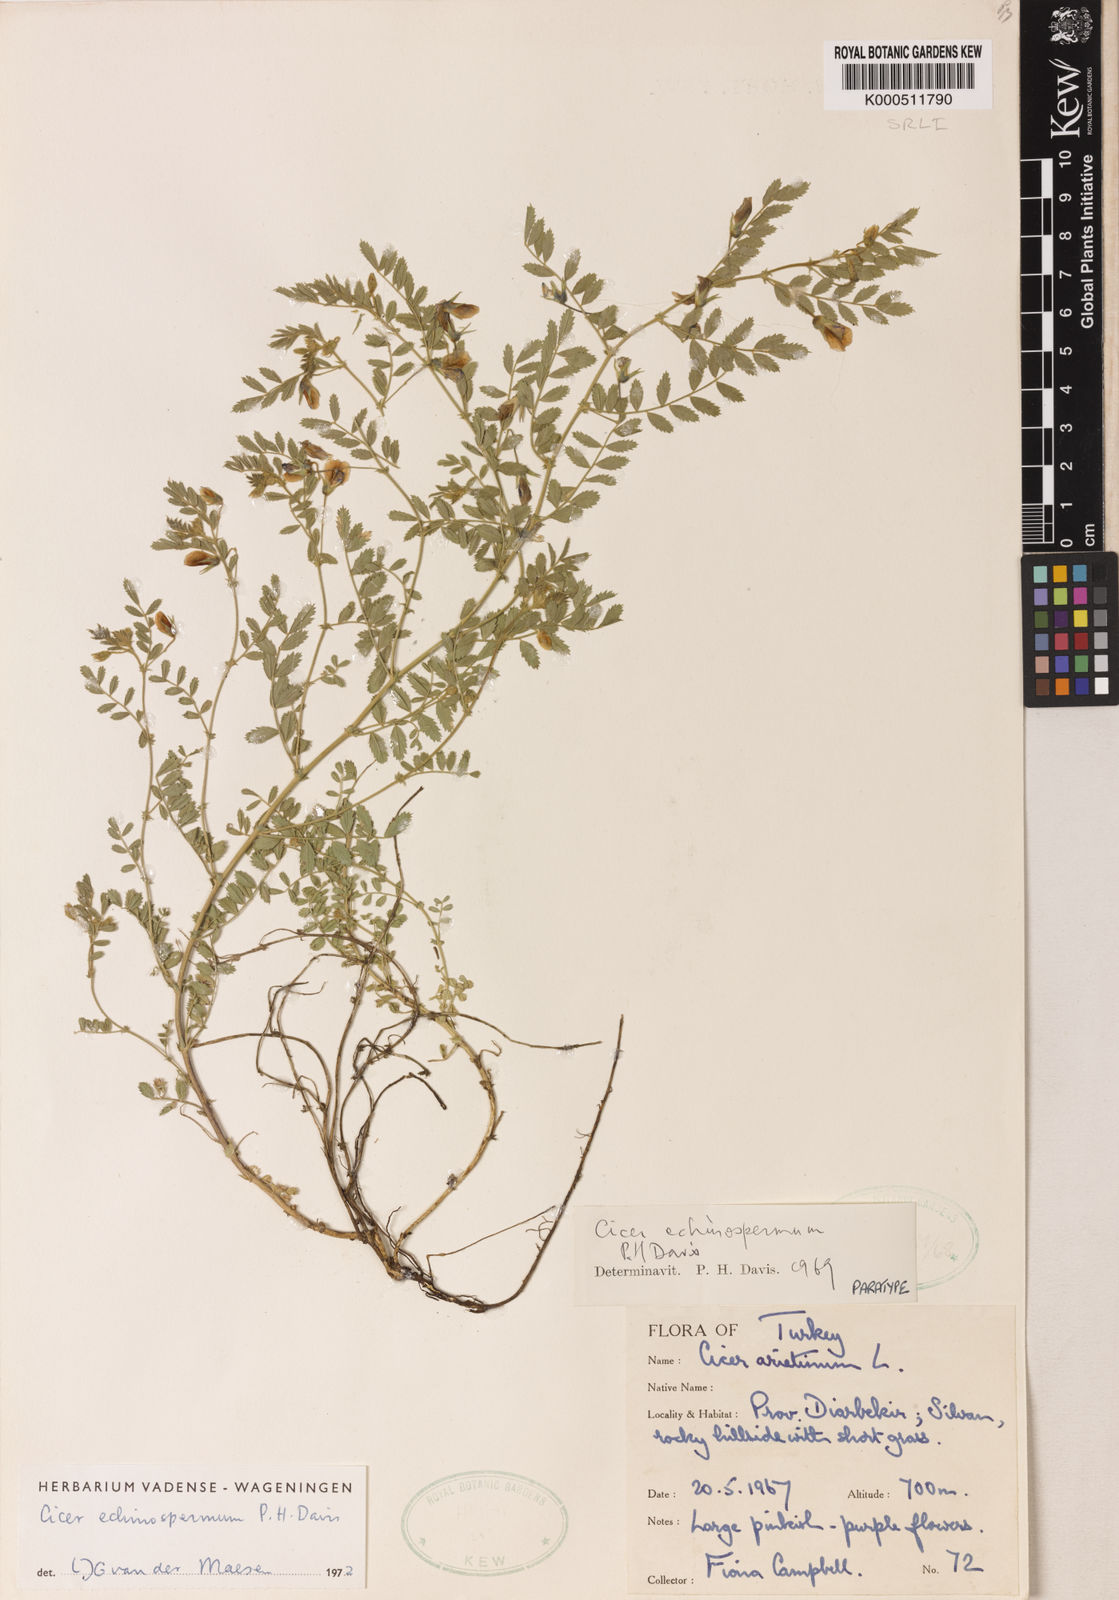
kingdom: Plantae
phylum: Tracheophyta
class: Magnoliopsida
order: Fabales
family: Fabaceae
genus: Cicer
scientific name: Cicer echinospermum
